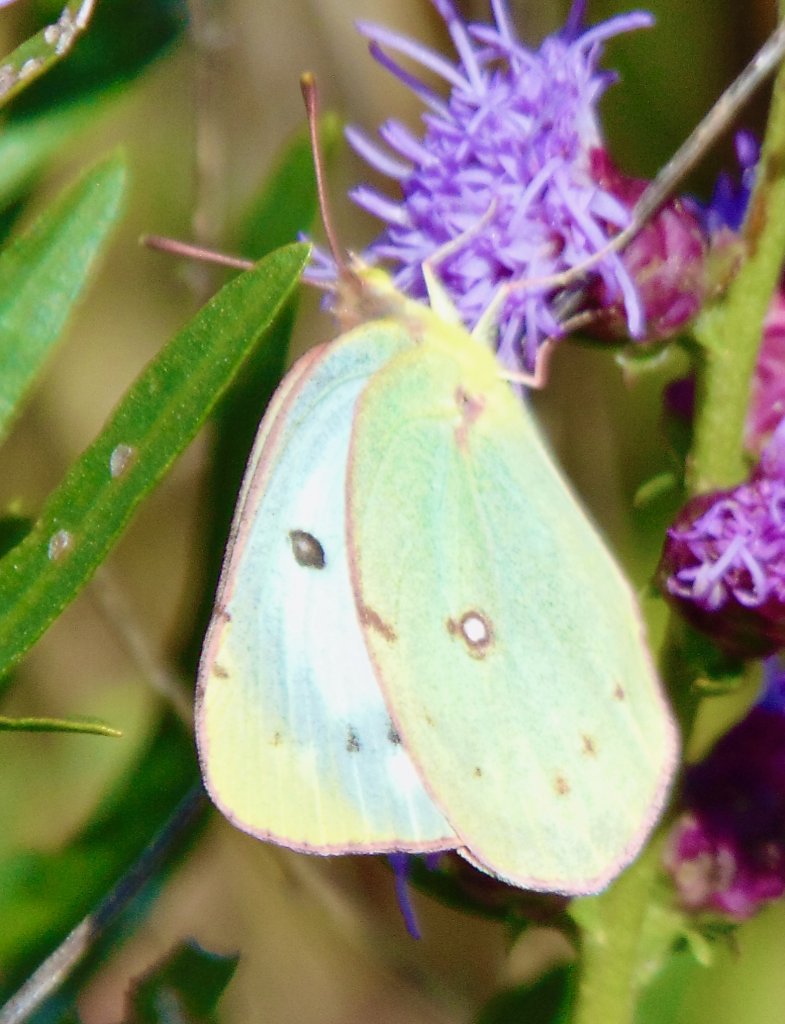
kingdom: Animalia
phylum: Arthropoda
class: Insecta
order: Lepidoptera
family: Pieridae
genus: Colias
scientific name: Colias
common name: Clouded Yellows
